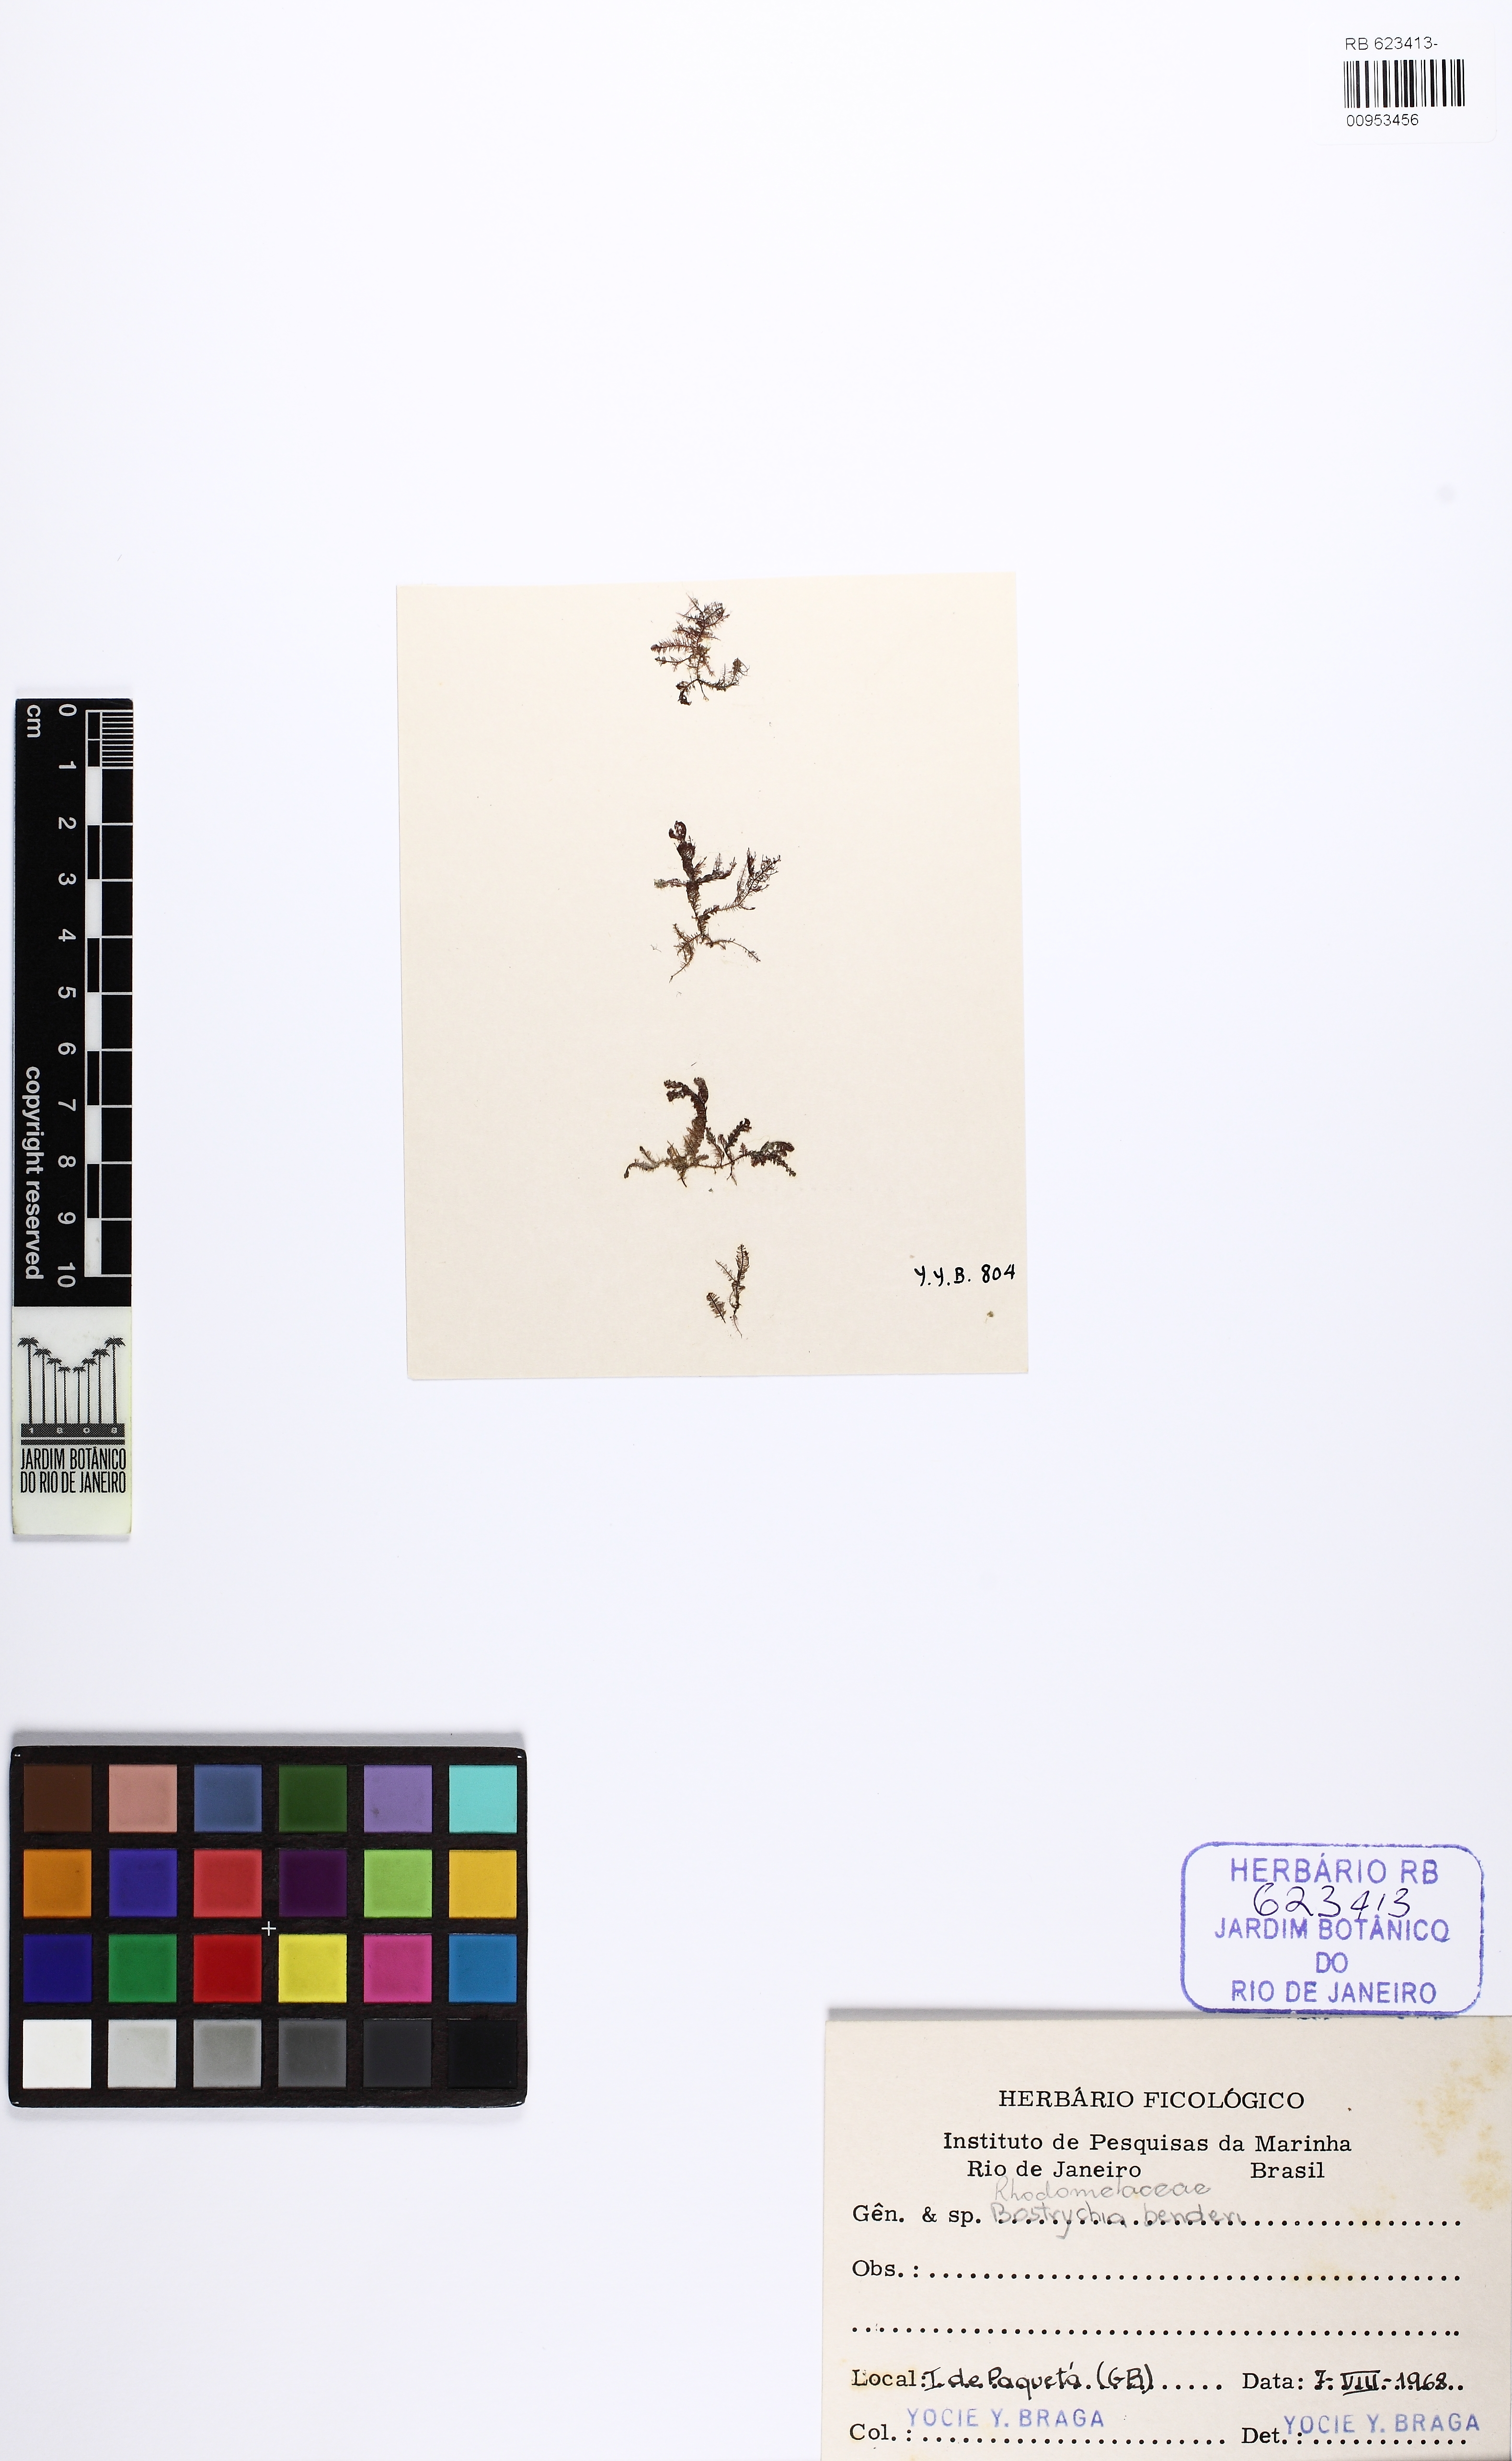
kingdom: Plantae
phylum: Rhodophyta
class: Florideophyceae
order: Ceramiales
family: Rhodomelaceae
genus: Bostrychia
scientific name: Bostrychia tenella
